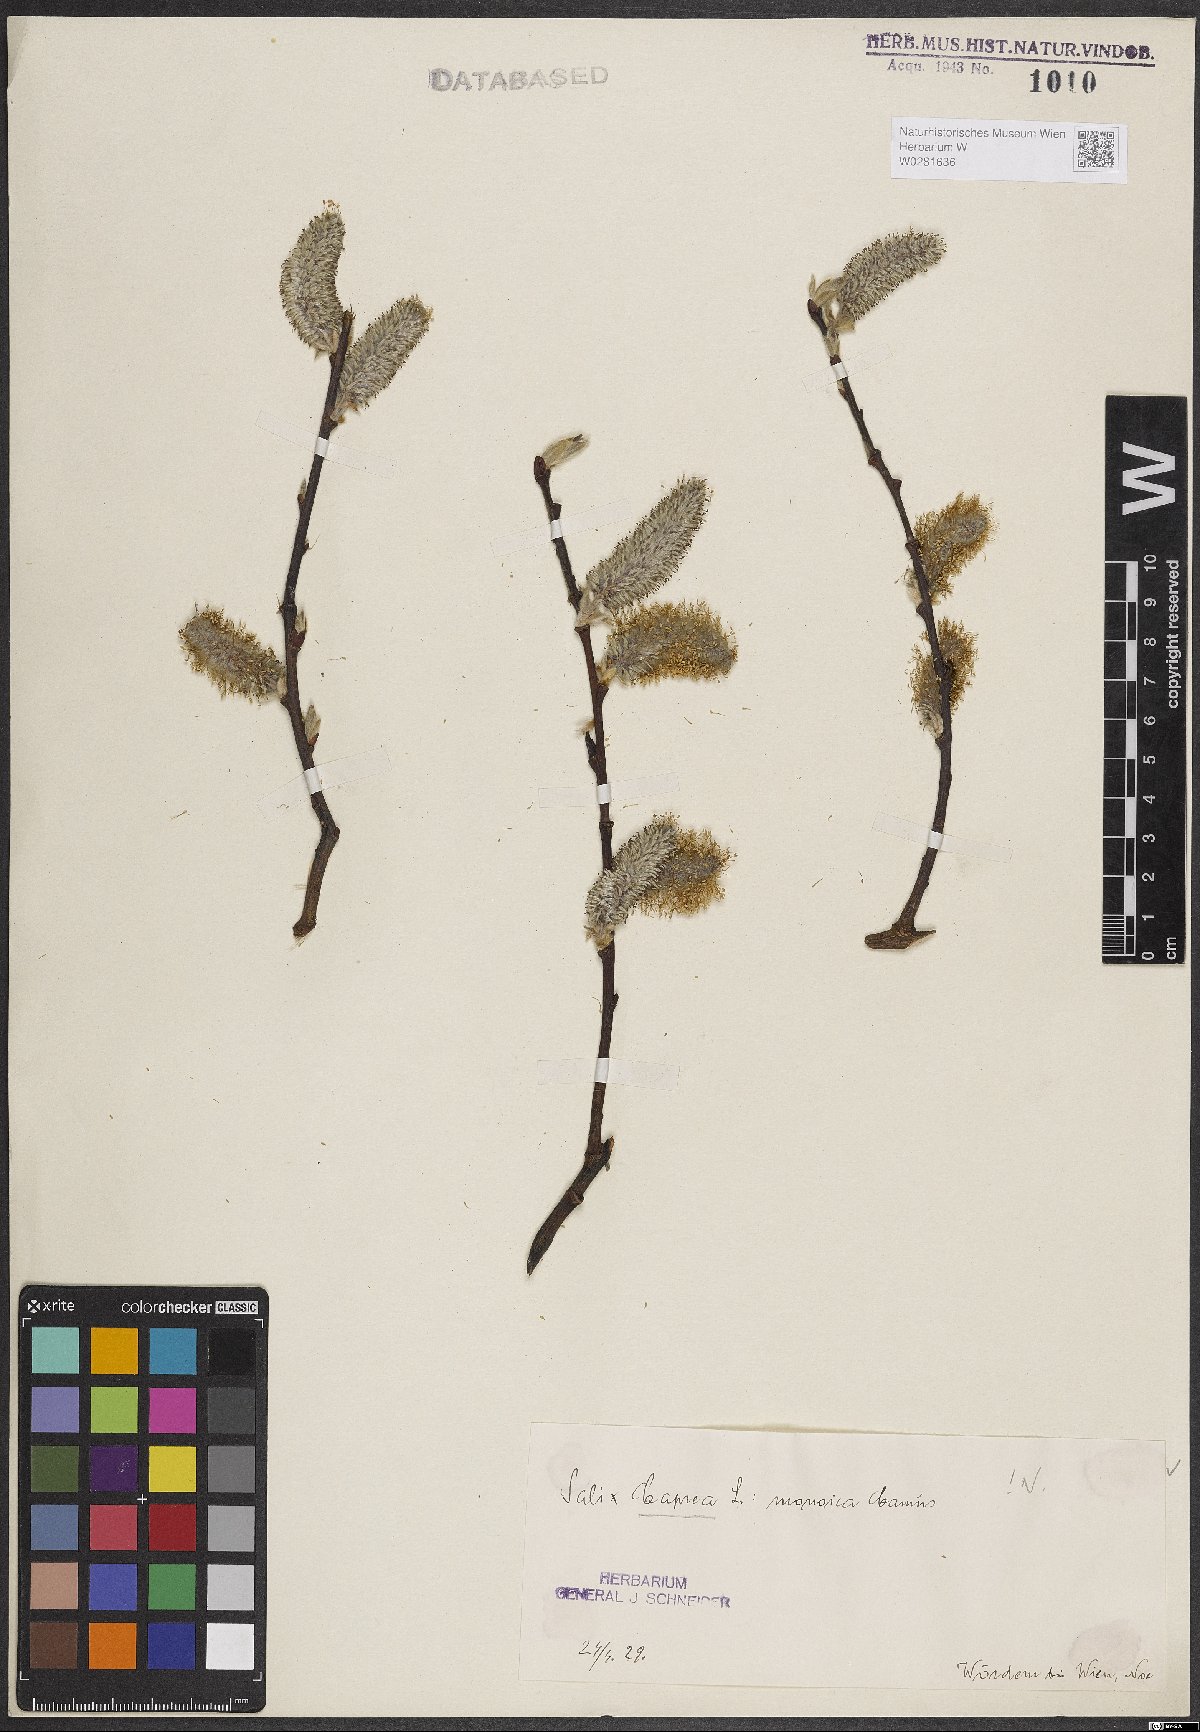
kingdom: Plantae
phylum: Tracheophyta
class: Magnoliopsida
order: Malpighiales
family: Salicaceae
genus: Salix
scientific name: Salix caprea
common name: Goat willow
